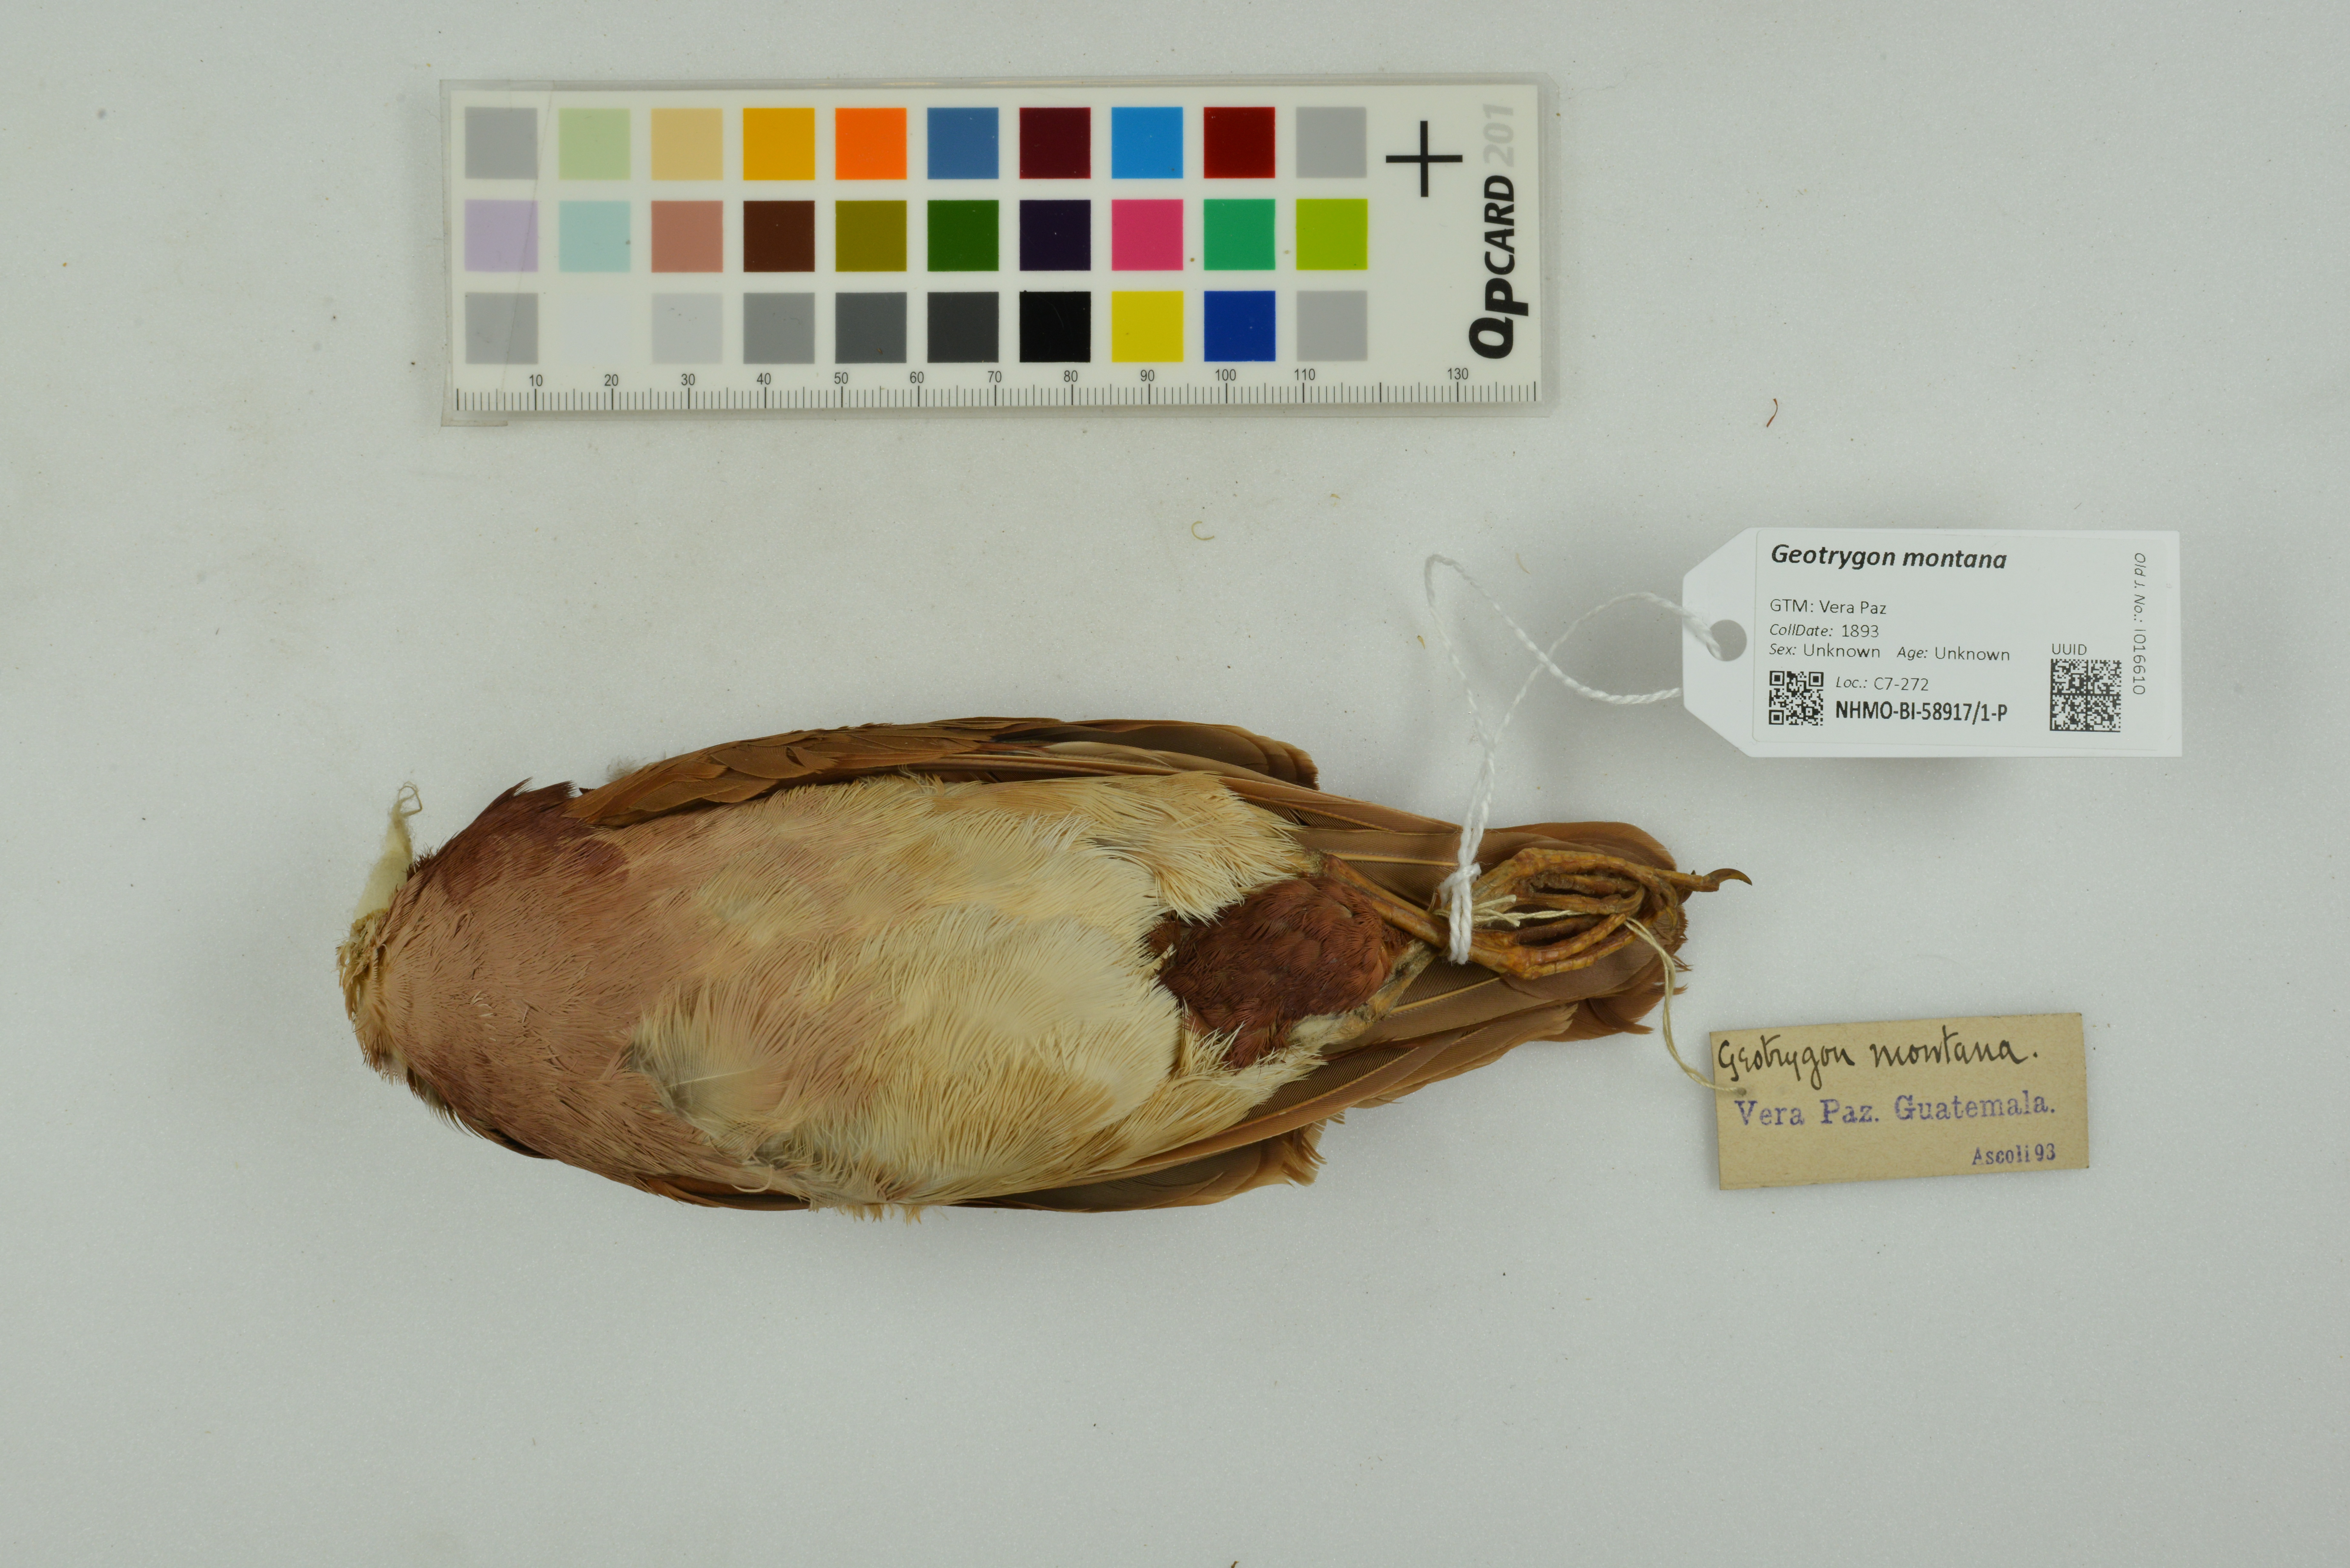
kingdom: Animalia
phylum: Chordata
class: Aves
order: Columbiformes
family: Columbidae
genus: Geotrygon
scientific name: Geotrygon montana
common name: Ruddy quail-dove
